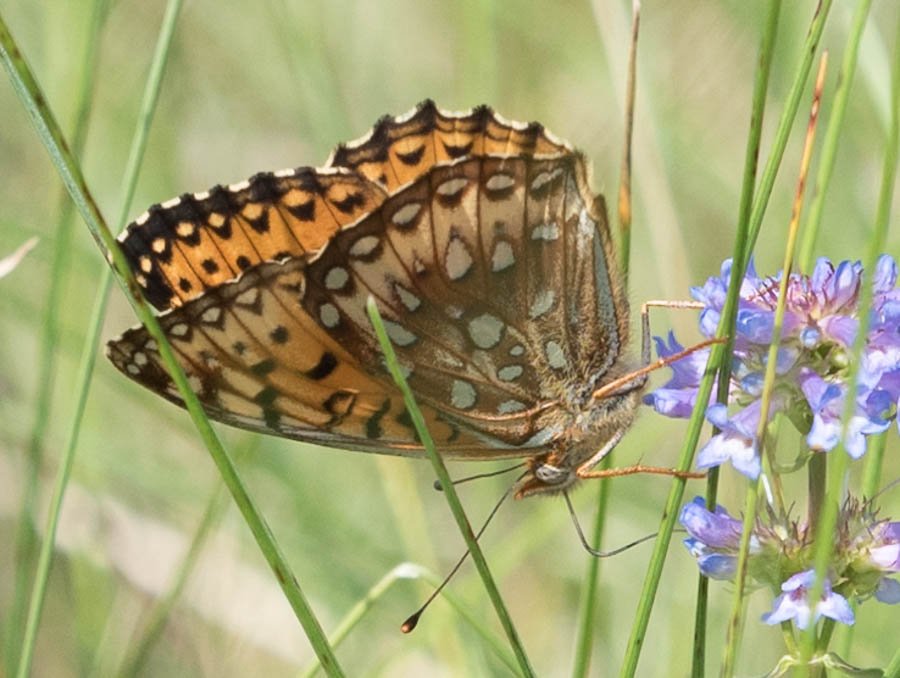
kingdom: Animalia
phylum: Arthropoda
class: Insecta
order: Lepidoptera
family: Nymphalidae
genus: Speyeria
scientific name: Speyeria atlantis
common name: Atlantis Fritillary
